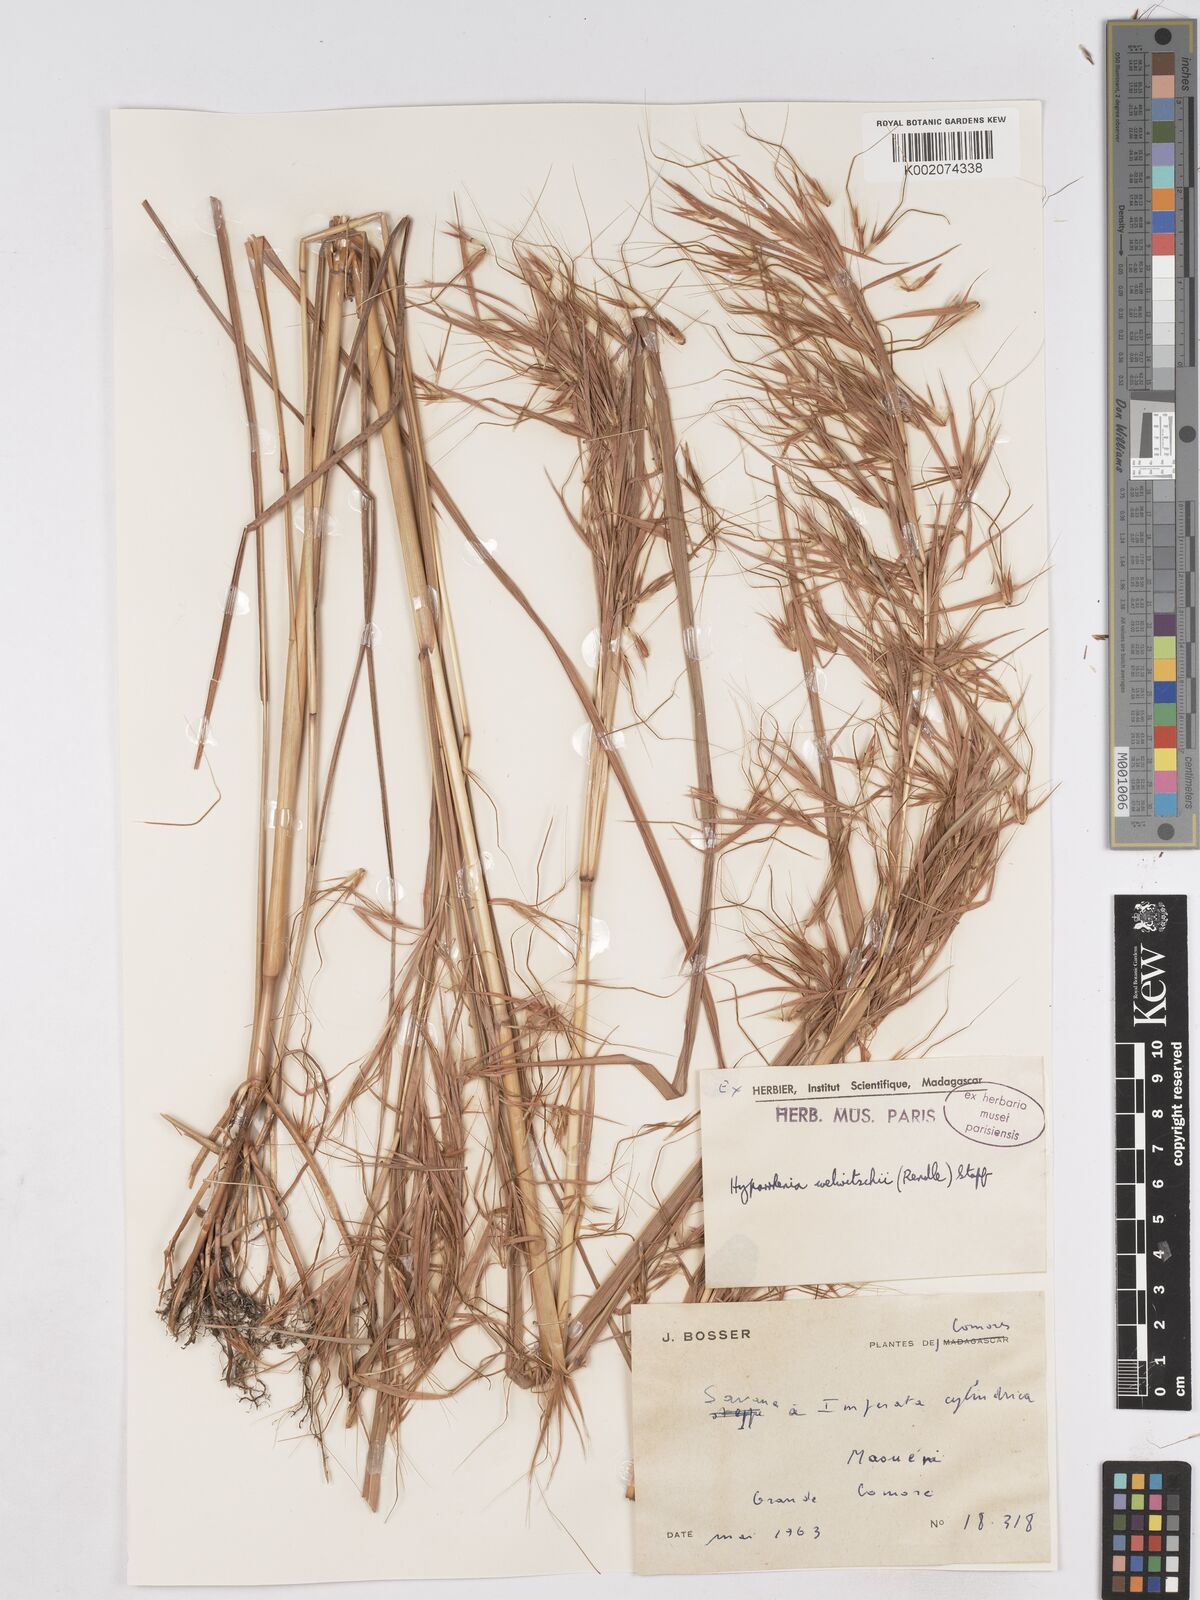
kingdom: Plantae
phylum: Tracheophyta
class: Liliopsida
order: Poales
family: Poaceae
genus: Hyparrhenia
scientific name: Hyparrhenia welwitschii
